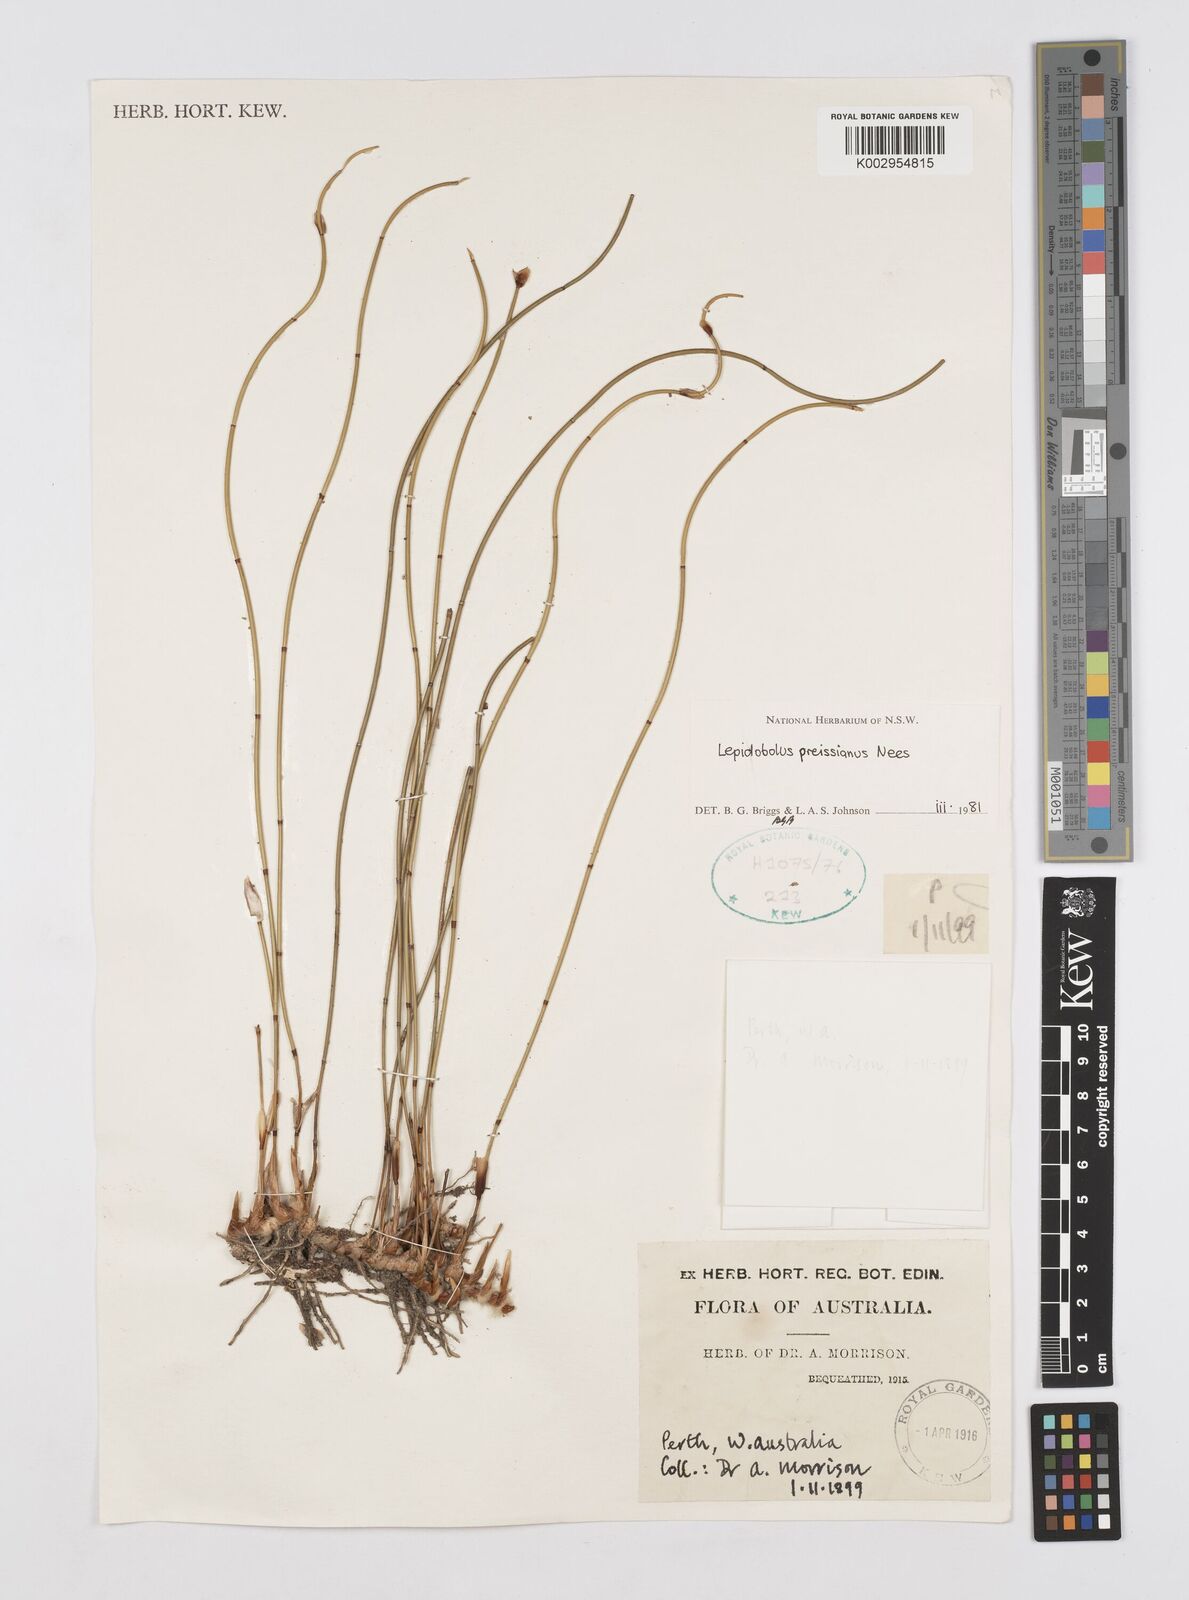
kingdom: Plantae
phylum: Tracheophyta
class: Liliopsida
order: Poales
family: Restionaceae
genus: Lepidobolus
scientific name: Lepidobolus preissianus
